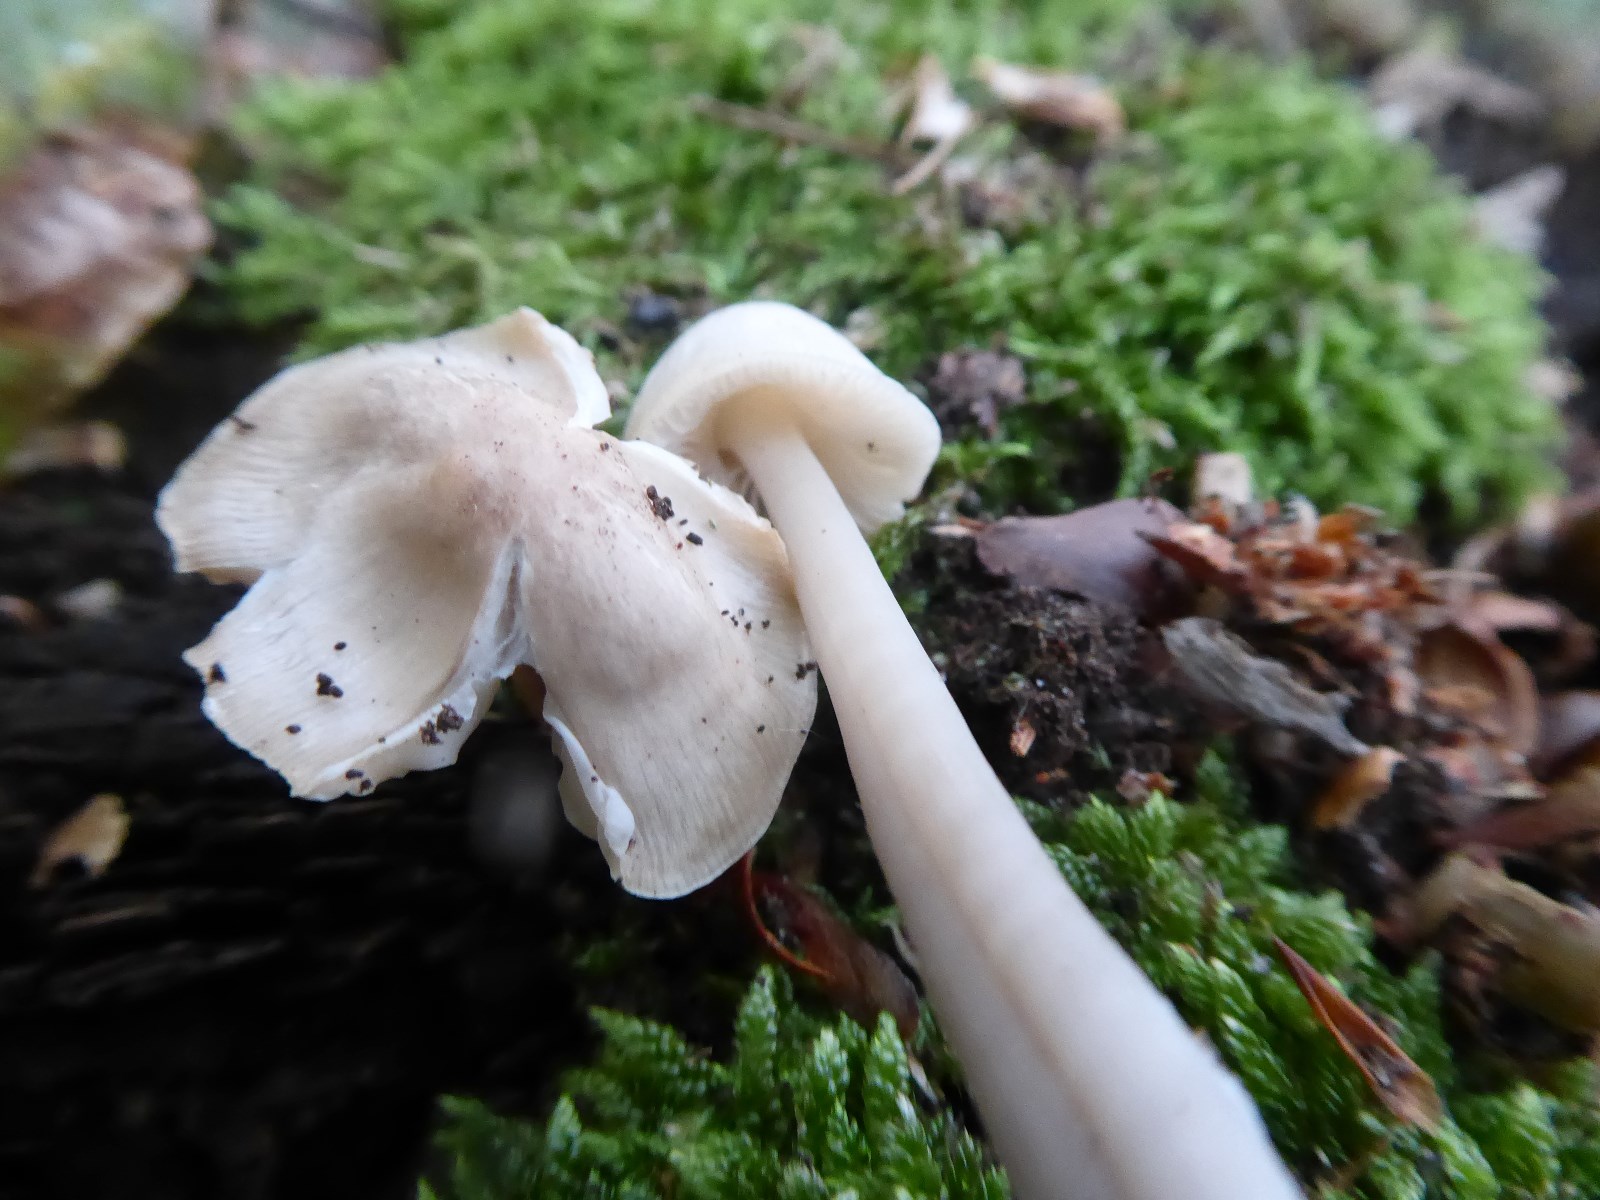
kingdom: Fungi
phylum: Basidiomycota
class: Agaricomycetes
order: Agaricales
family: Mycenaceae
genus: Mycena
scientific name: Mycena galericulata
